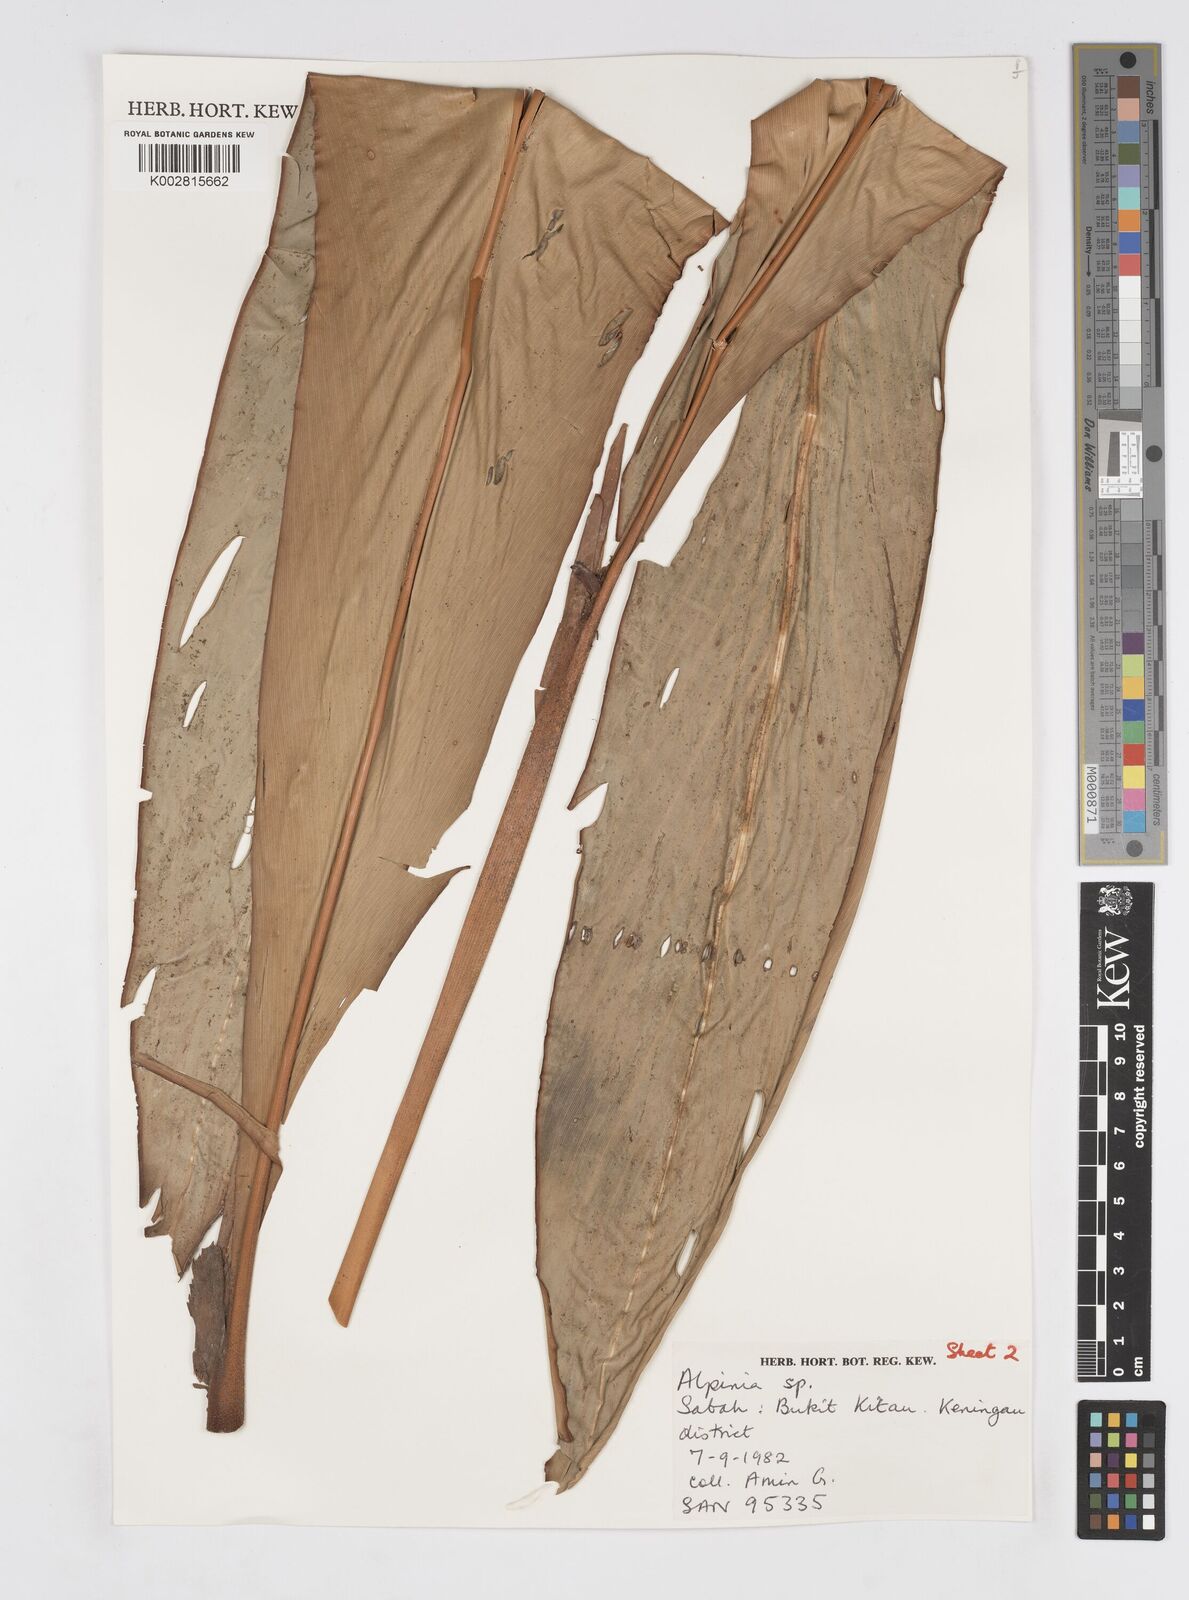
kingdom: Plantae
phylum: Tracheophyta
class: Liliopsida
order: Zingiberales
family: Zingiberaceae
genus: Alpinia
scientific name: Alpinia ligulata
